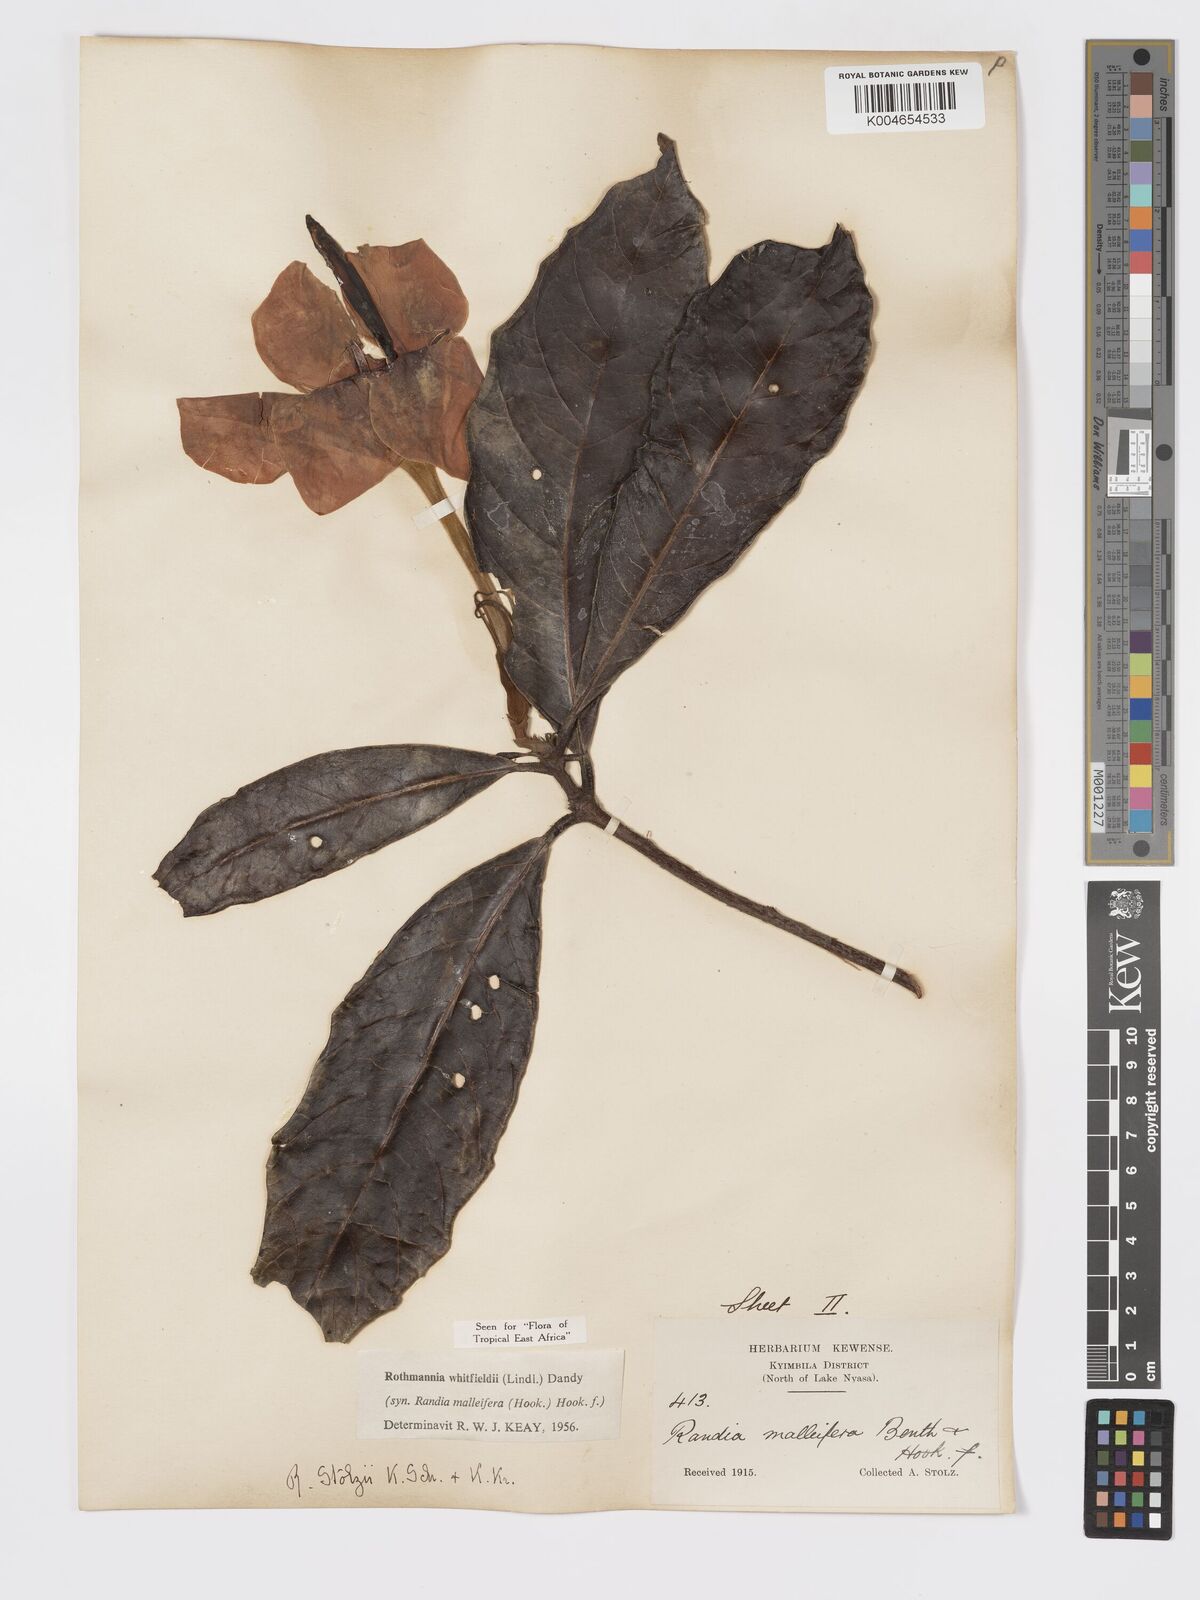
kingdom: Plantae
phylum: Tracheophyta
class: Magnoliopsida
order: Gentianales
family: Rubiaceae
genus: Rothmannia
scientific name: Rothmannia whitfieldii
